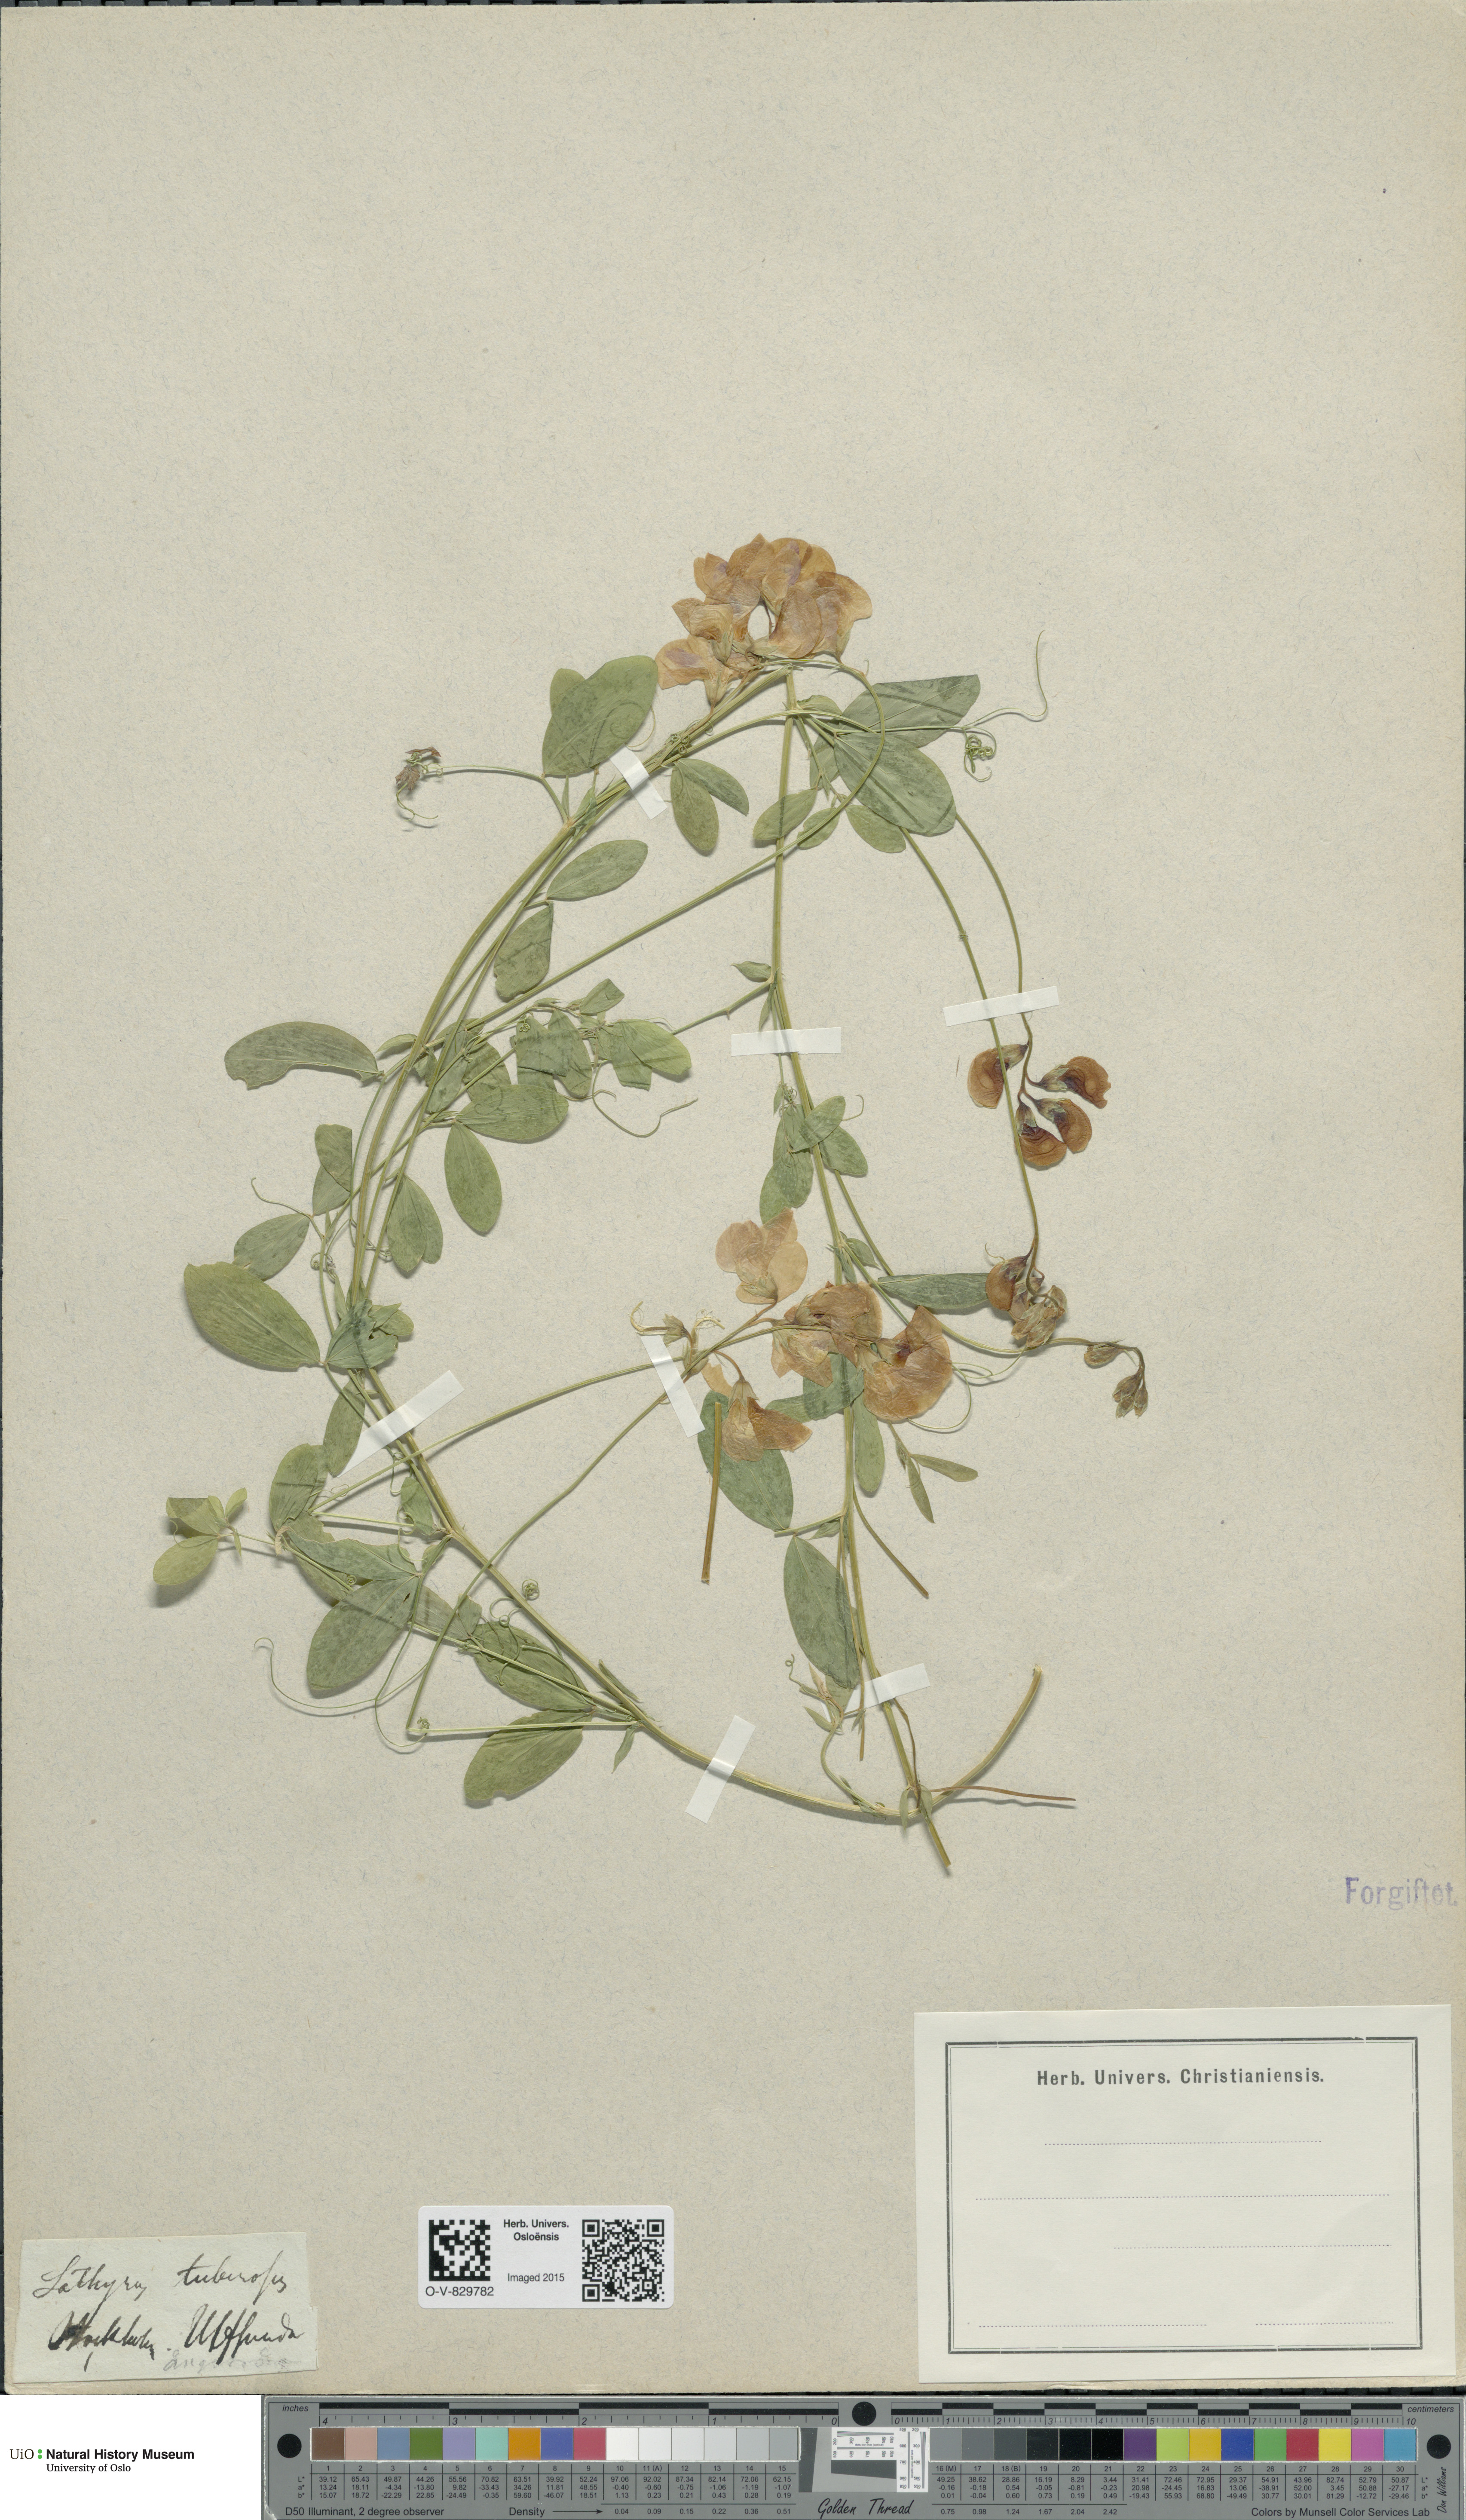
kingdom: Plantae
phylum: Tracheophyta
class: Magnoliopsida
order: Fabales
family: Fabaceae
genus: Lathyrus
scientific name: Lathyrus tuberosus
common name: Tuberous pea
